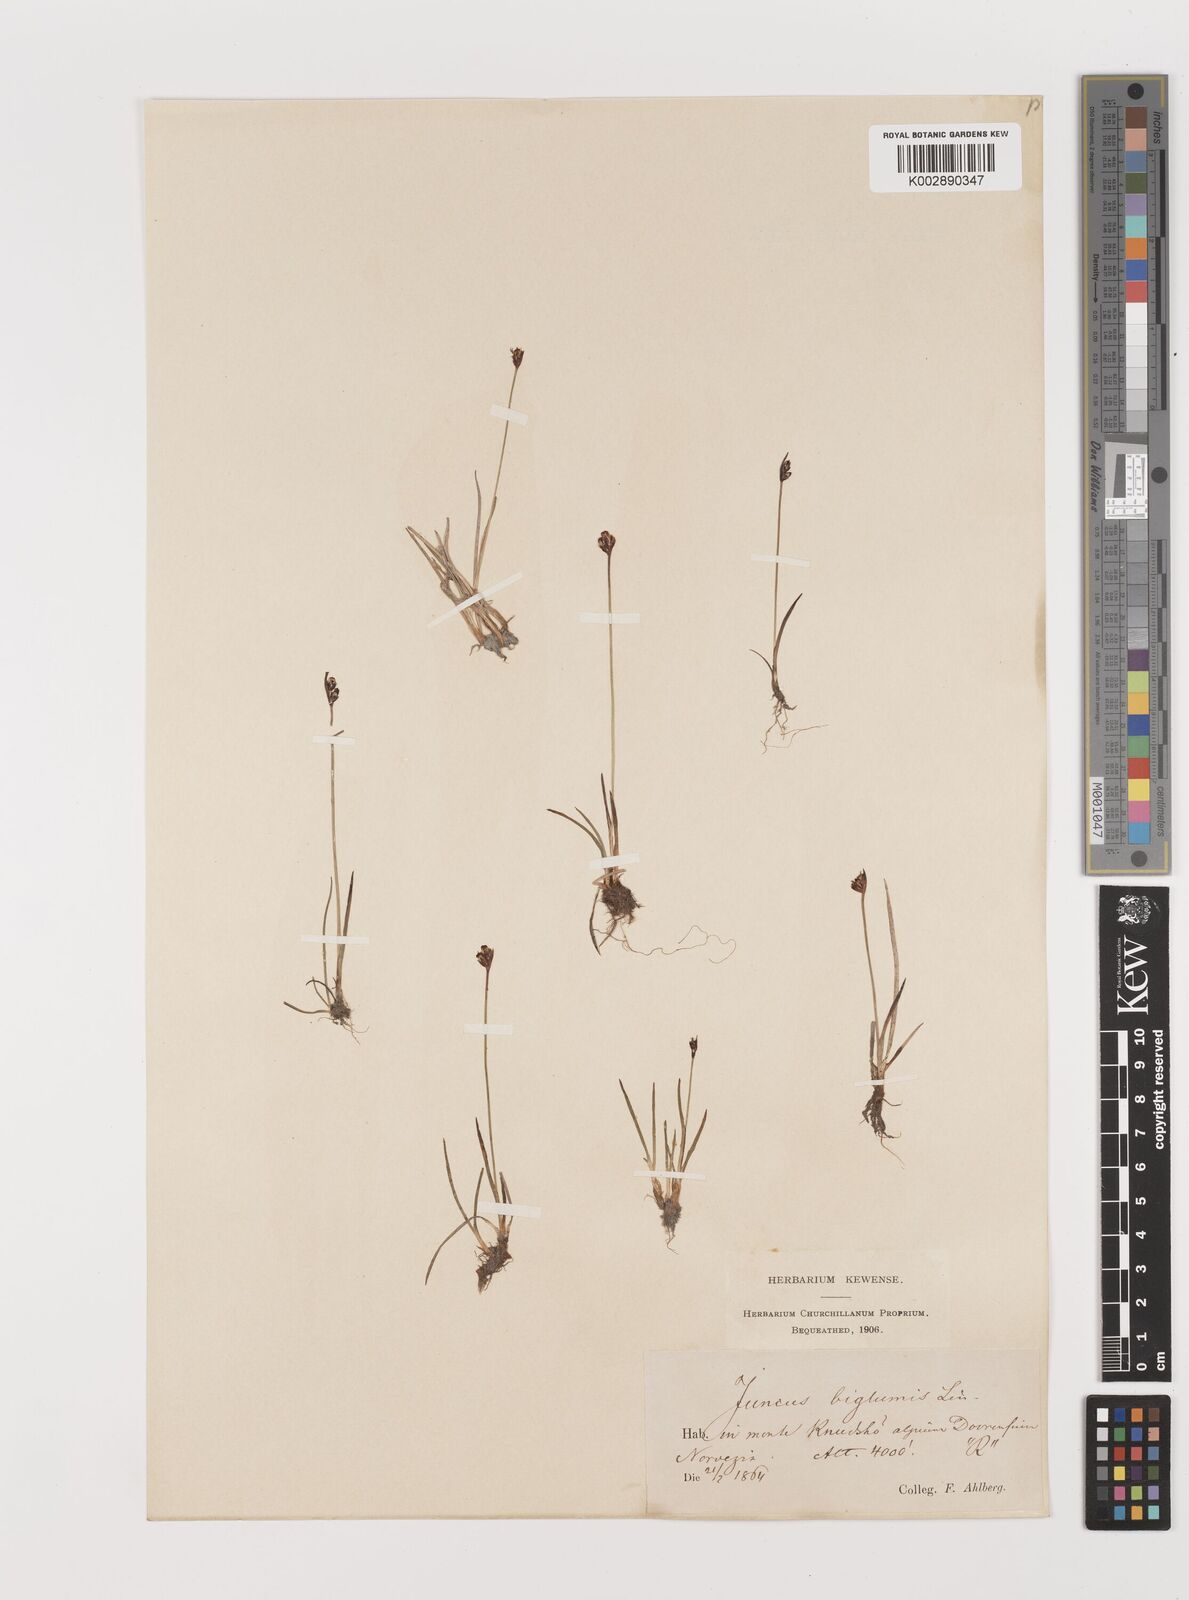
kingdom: Plantae
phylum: Tracheophyta
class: Liliopsida
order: Poales
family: Juncaceae
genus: Juncus
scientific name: Juncus biglumis
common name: Two-flowered rush
